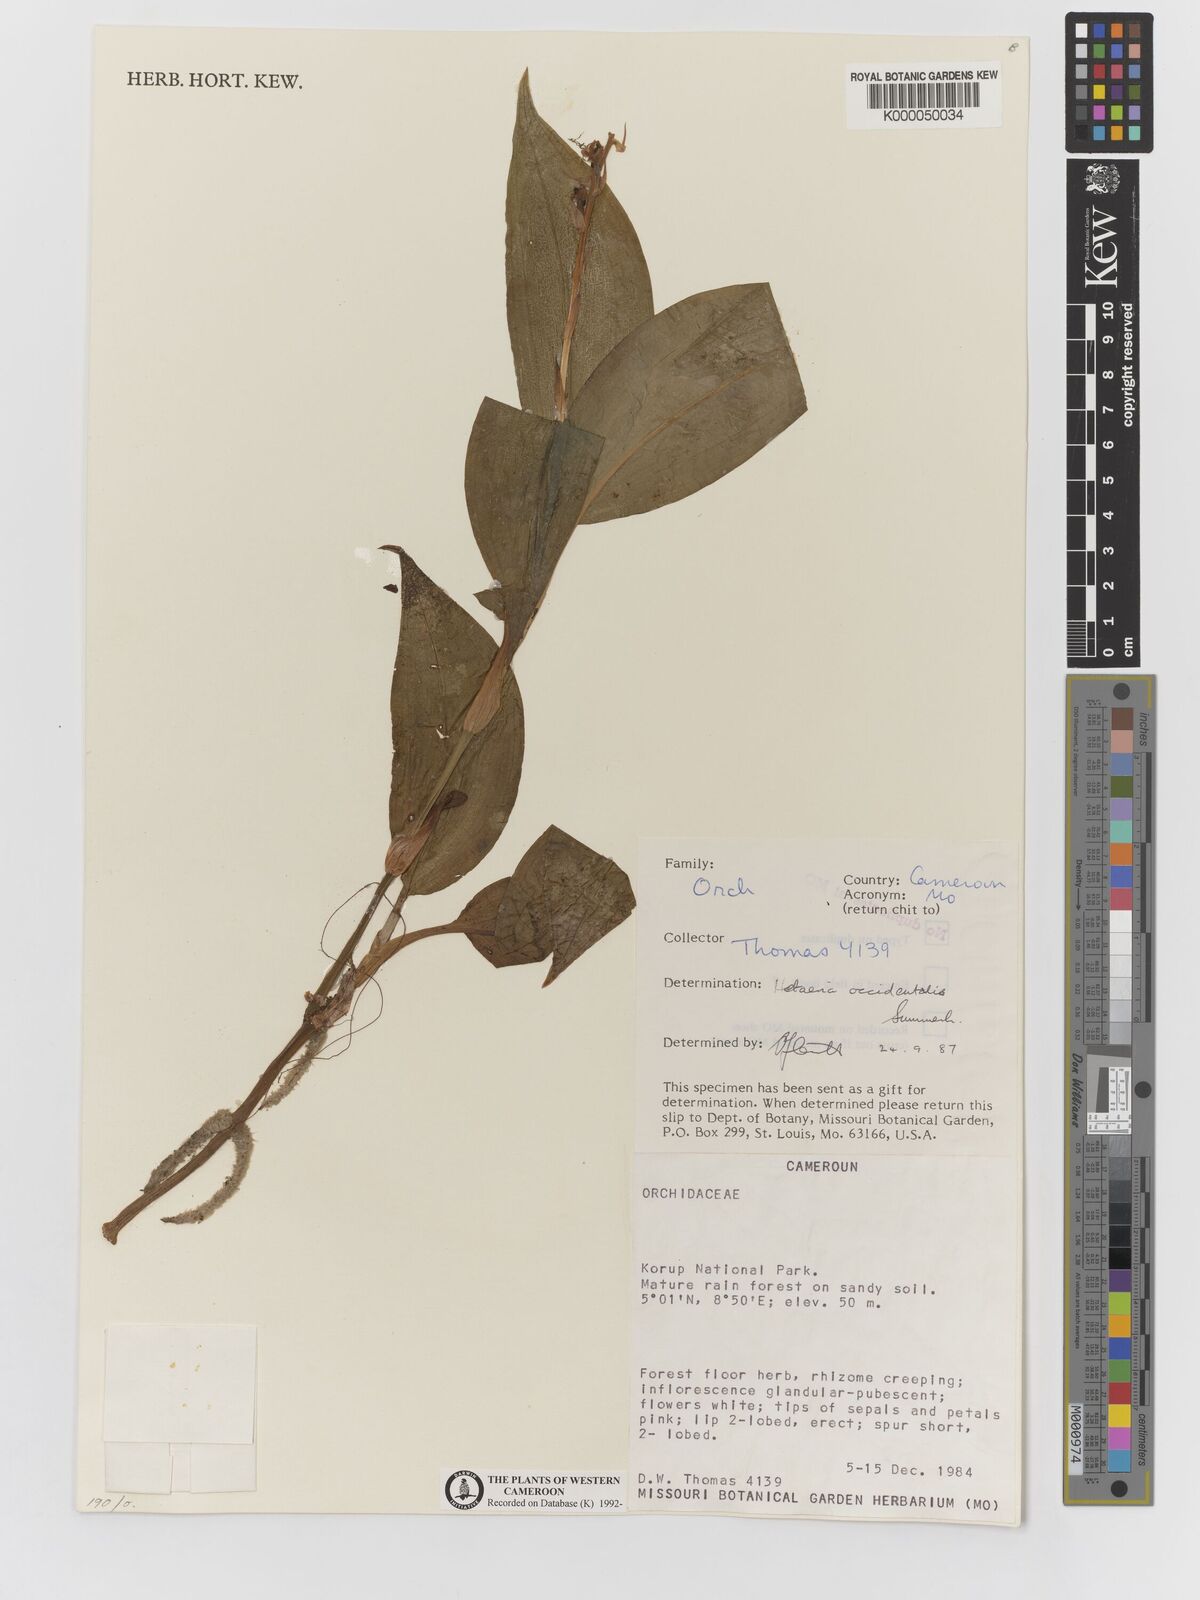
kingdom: Plantae
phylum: Tracheophyta
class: Liliopsida
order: Asparagales
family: Orchidaceae
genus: Hetaeria
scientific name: Hetaeria occidentalis
